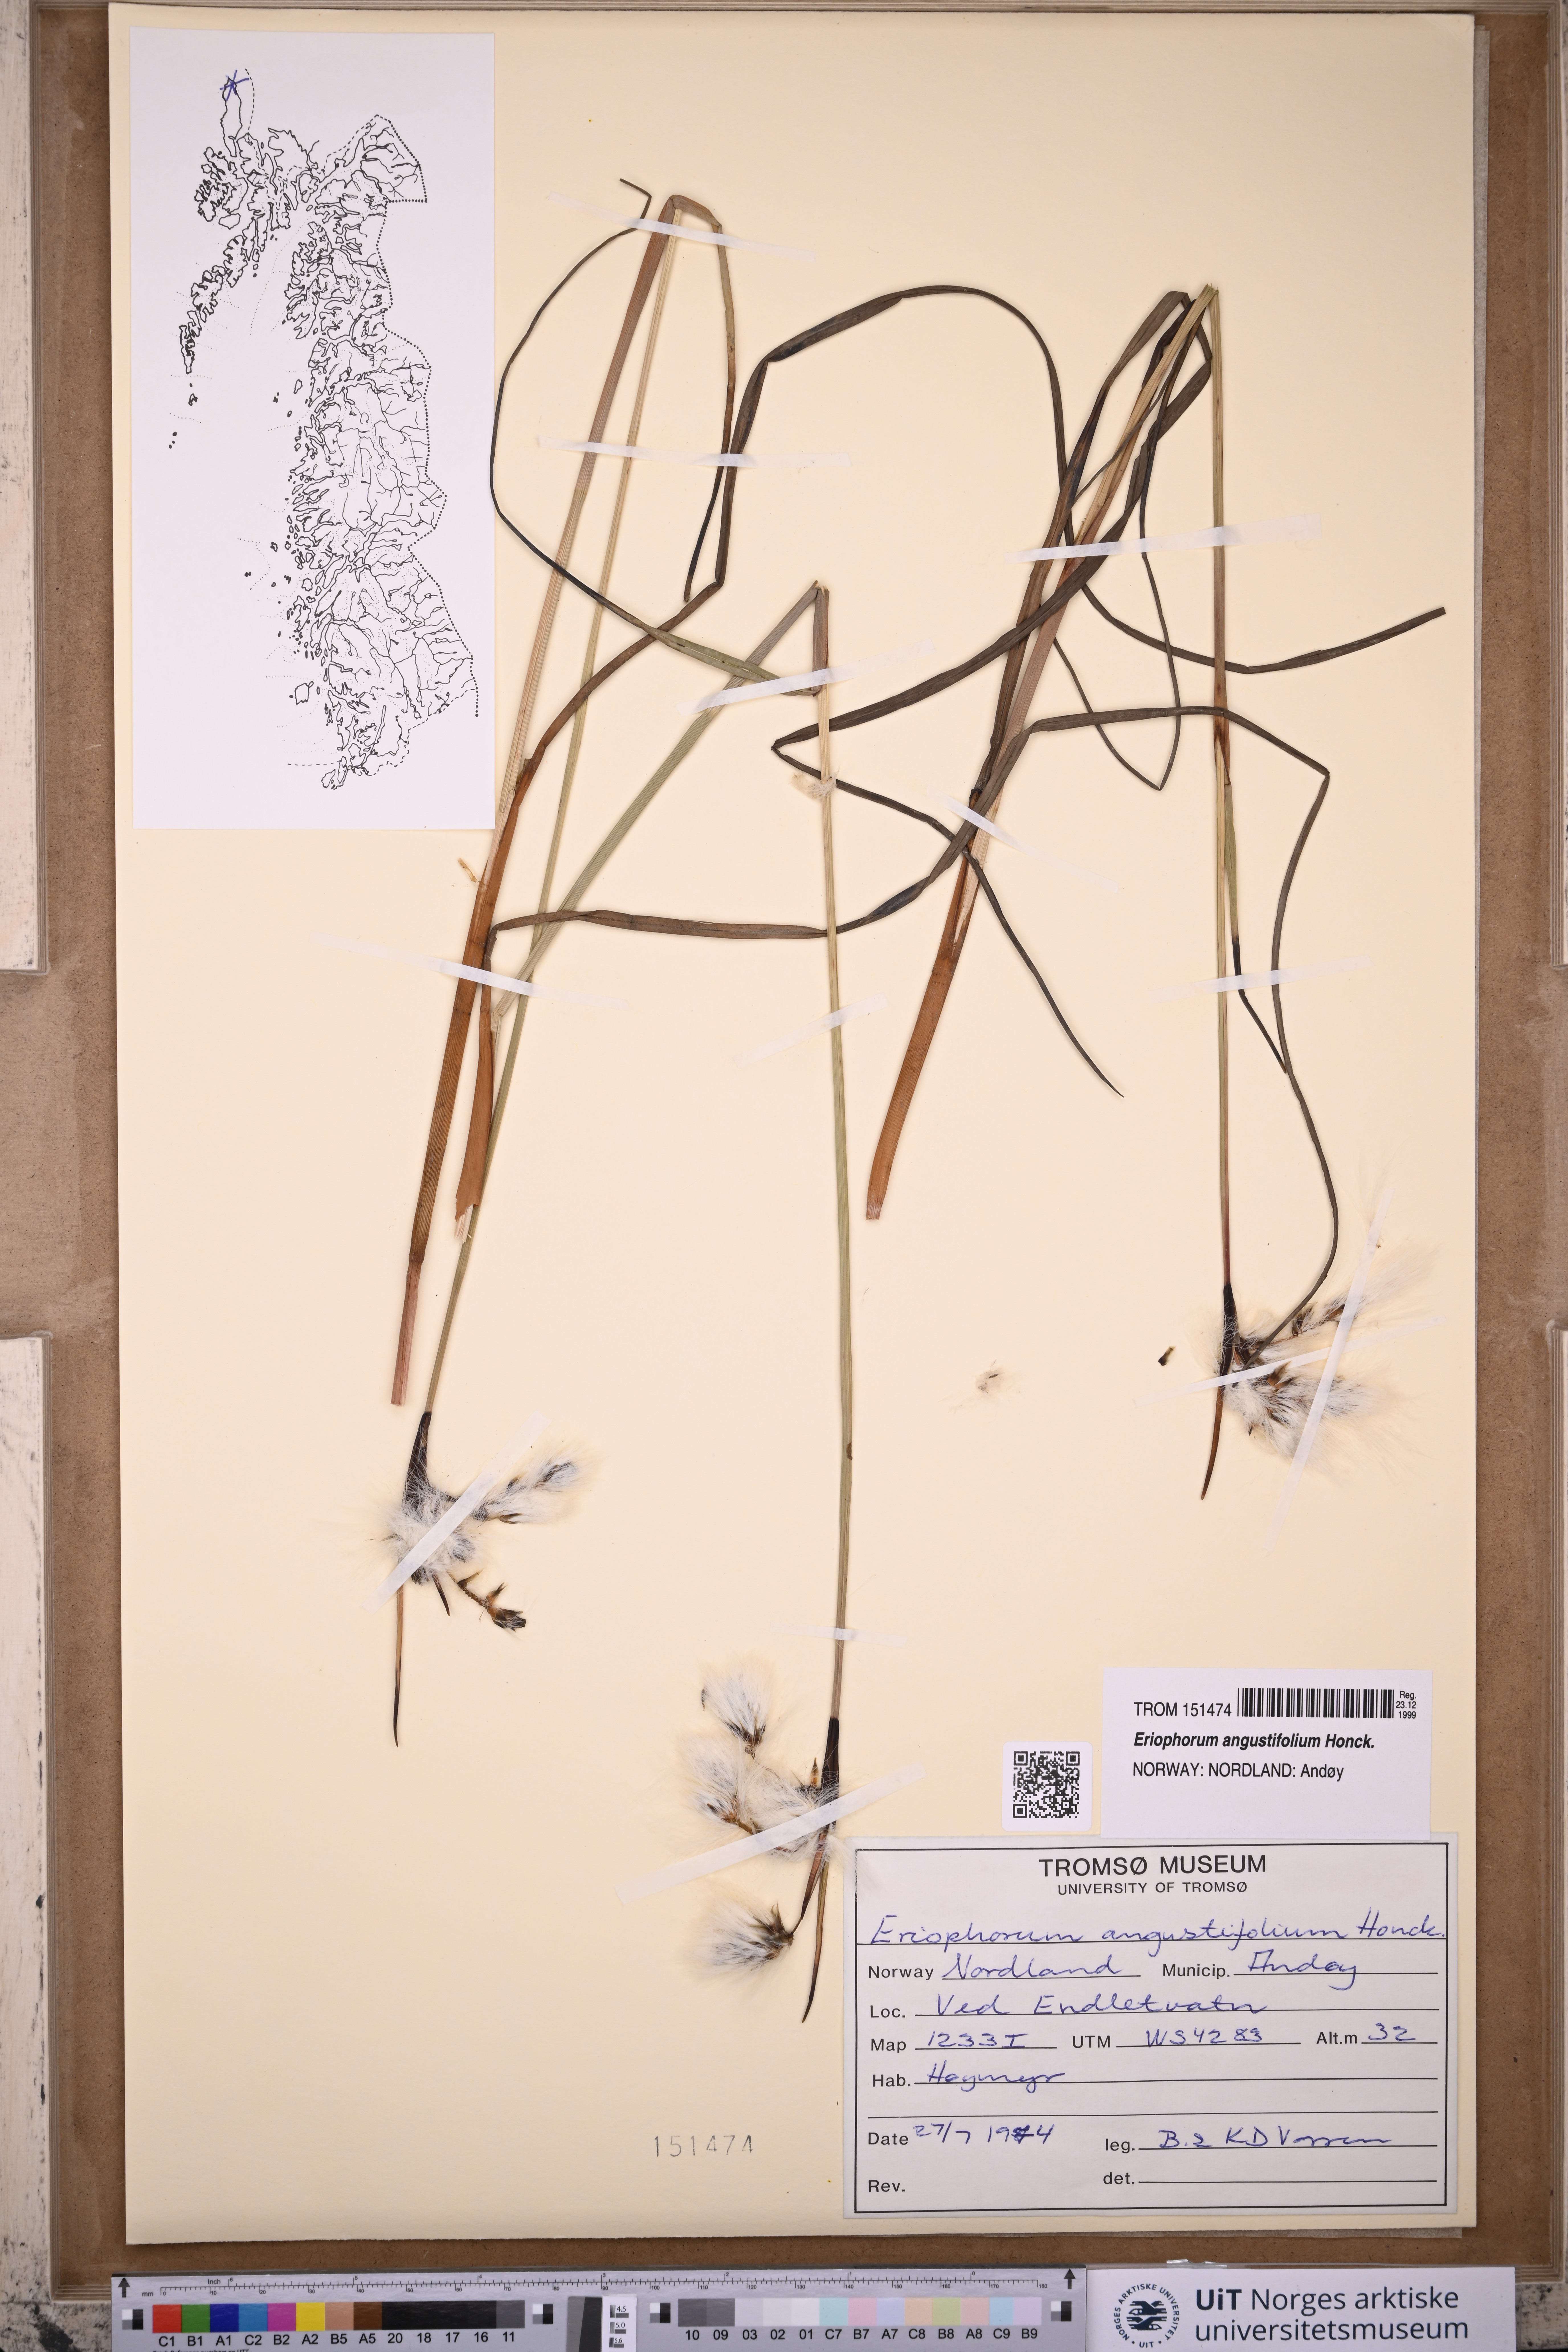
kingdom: Plantae
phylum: Tracheophyta
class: Liliopsida
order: Poales
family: Cyperaceae
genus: Eriophorum
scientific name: Eriophorum angustifolium
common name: Common cottongrass
